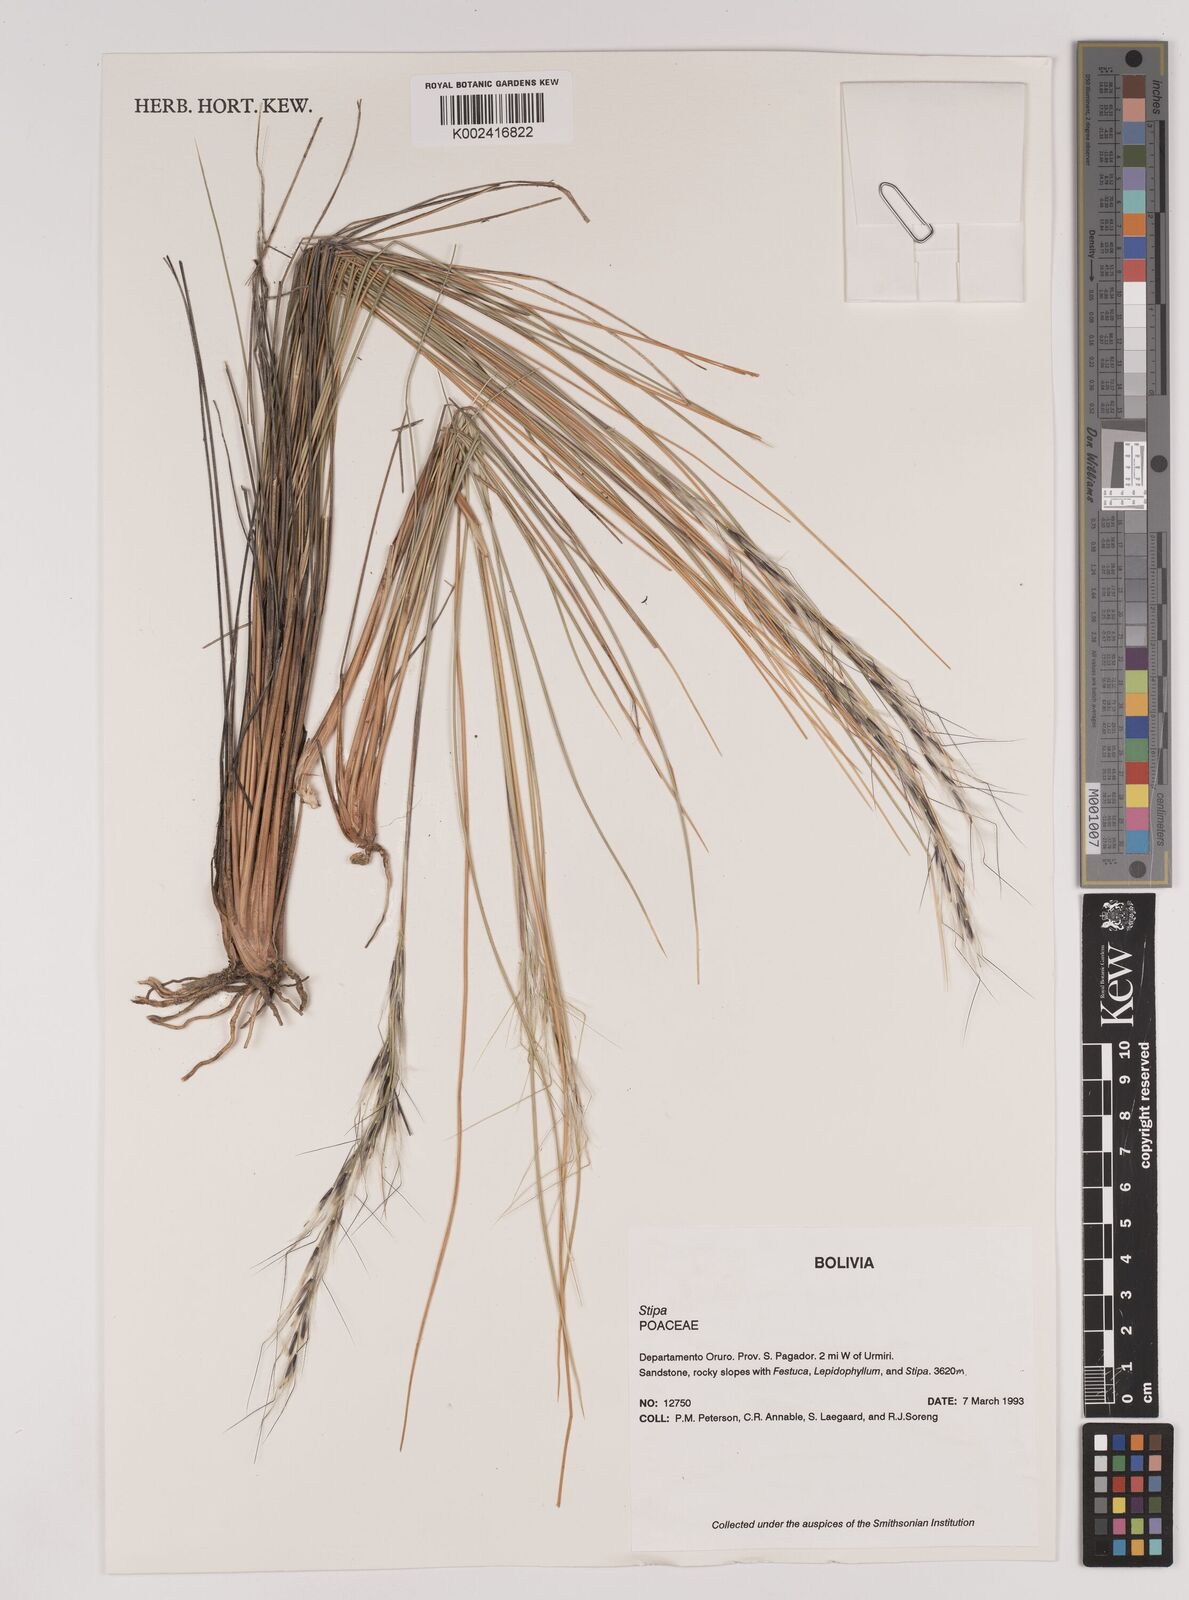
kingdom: Plantae
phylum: Tracheophyta
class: Liliopsida
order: Poales
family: Poaceae
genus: Pappostipa
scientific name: Pappostipa vaginata
